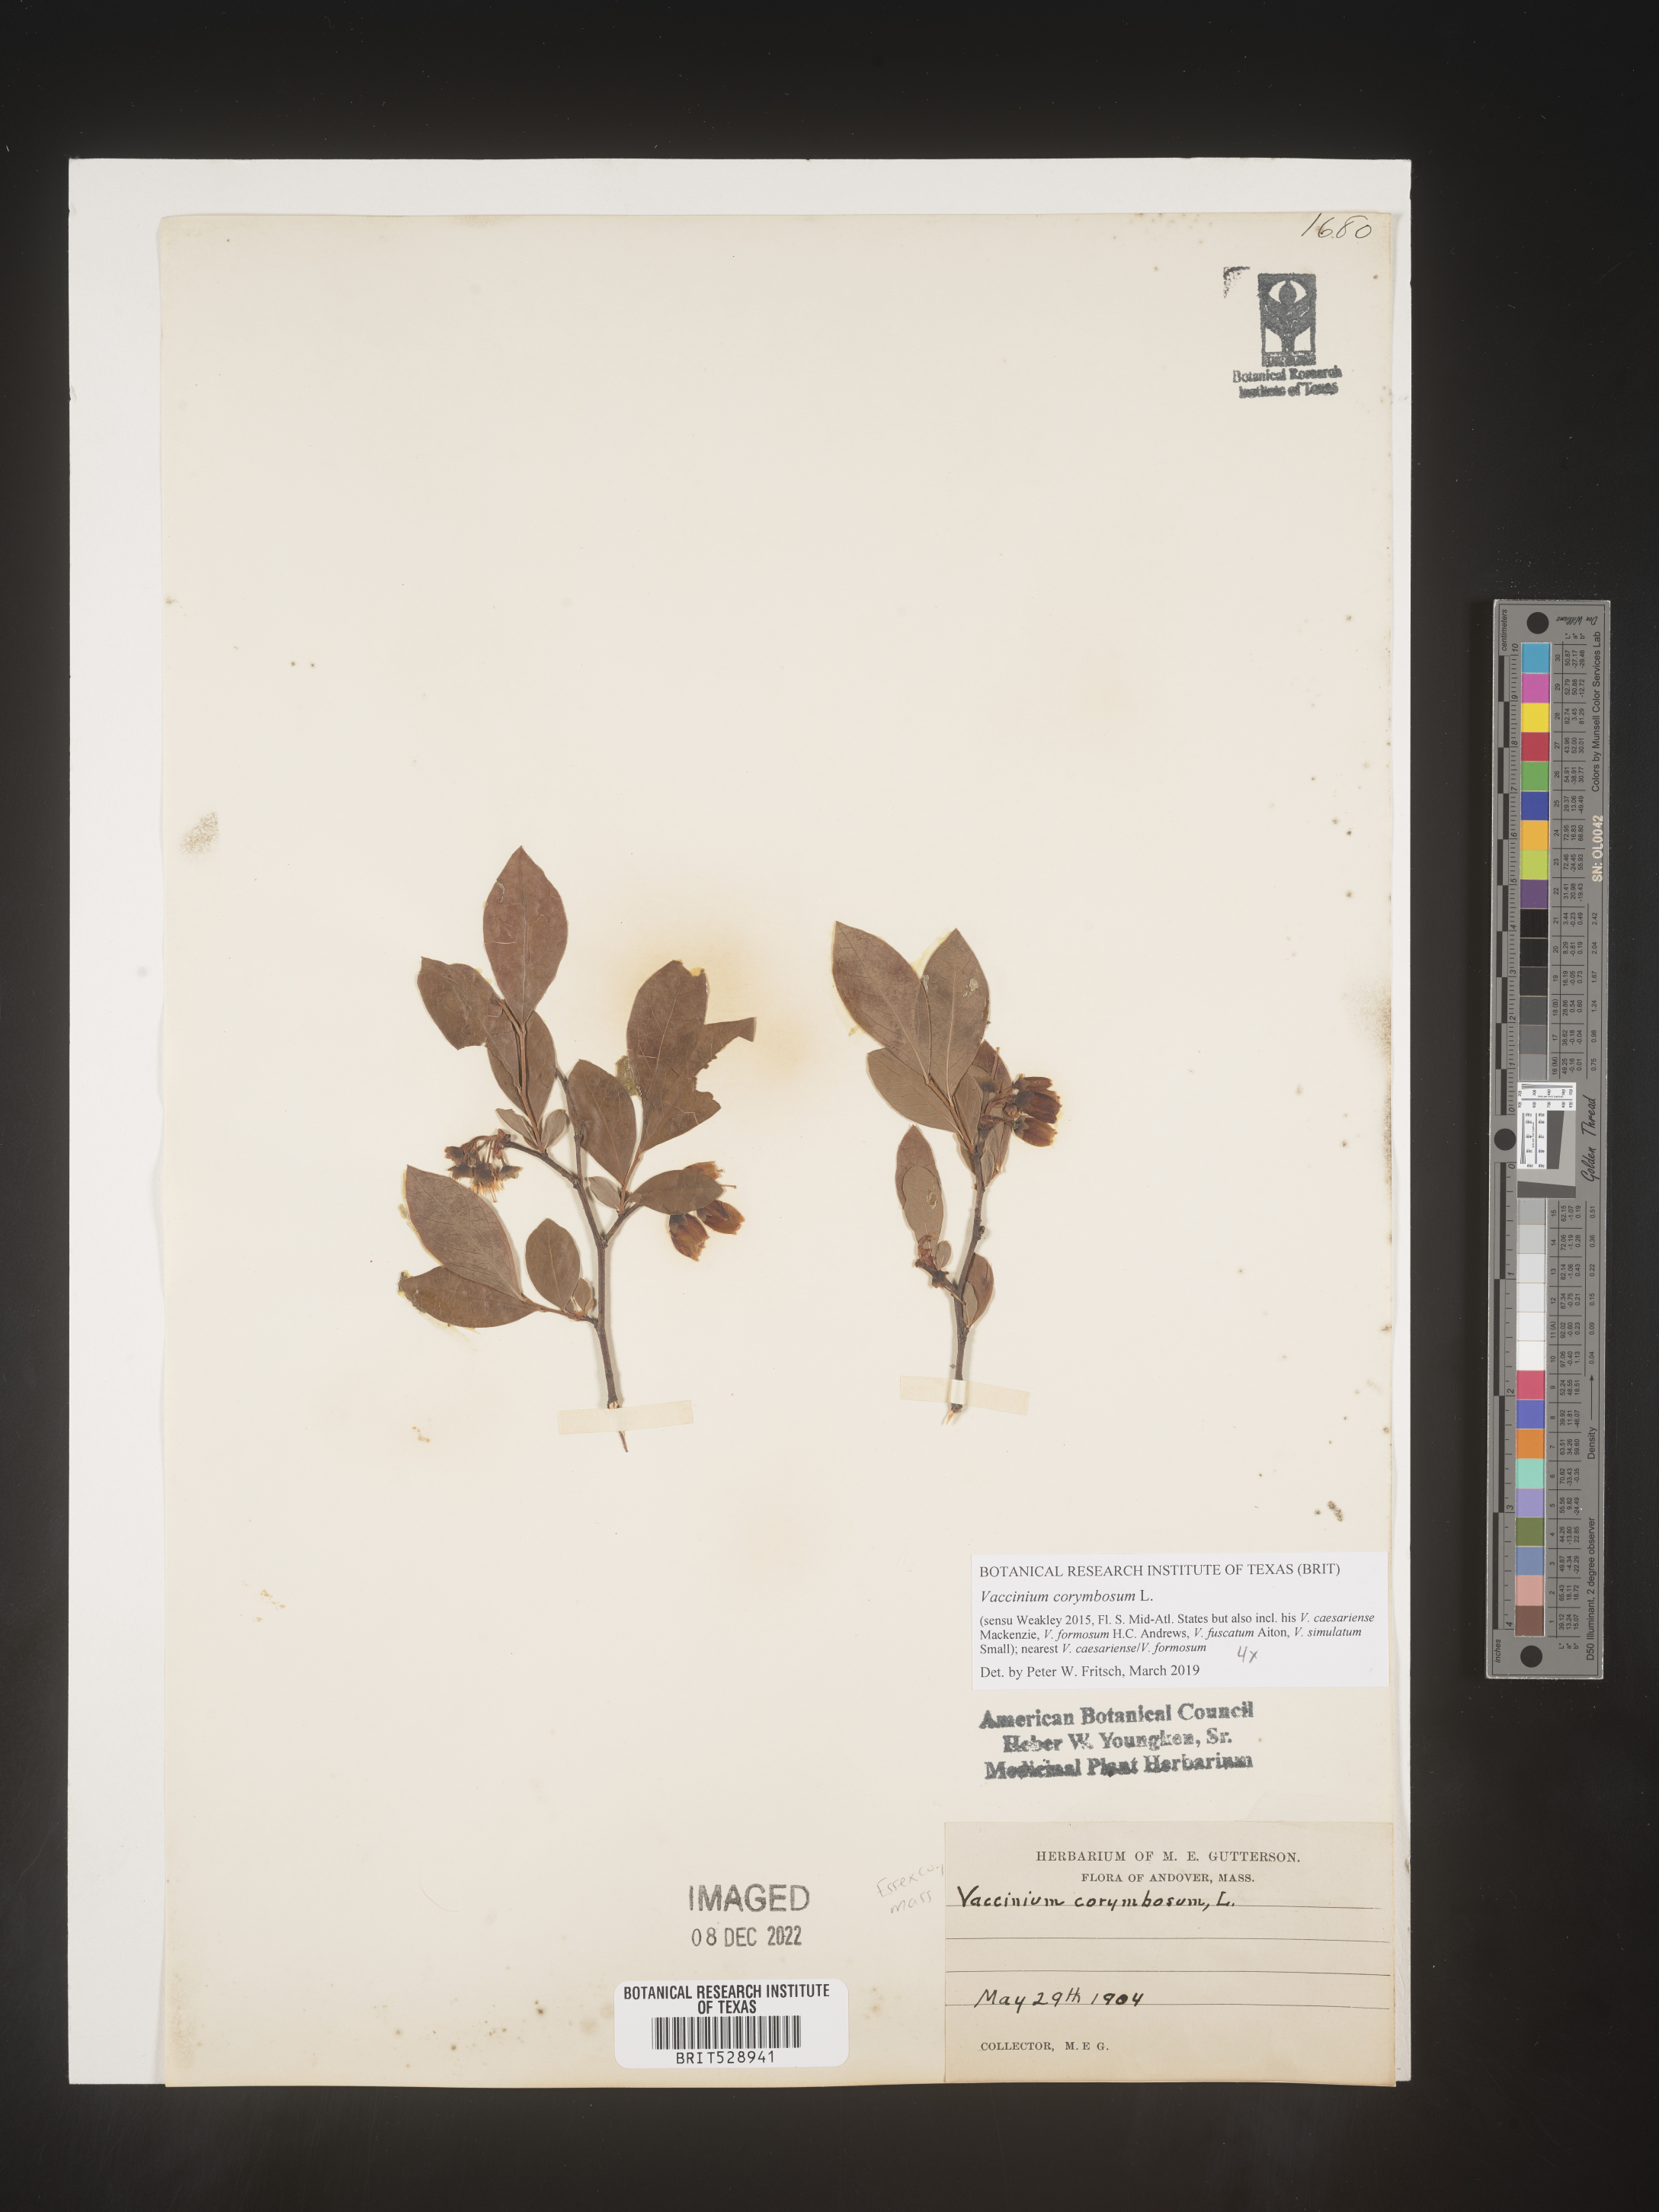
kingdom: Plantae
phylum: Tracheophyta
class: Magnoliopsida
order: Ericales
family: Ericaceae
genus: Vaccinium
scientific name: Vaccinium corymbosum
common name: Blueberry
